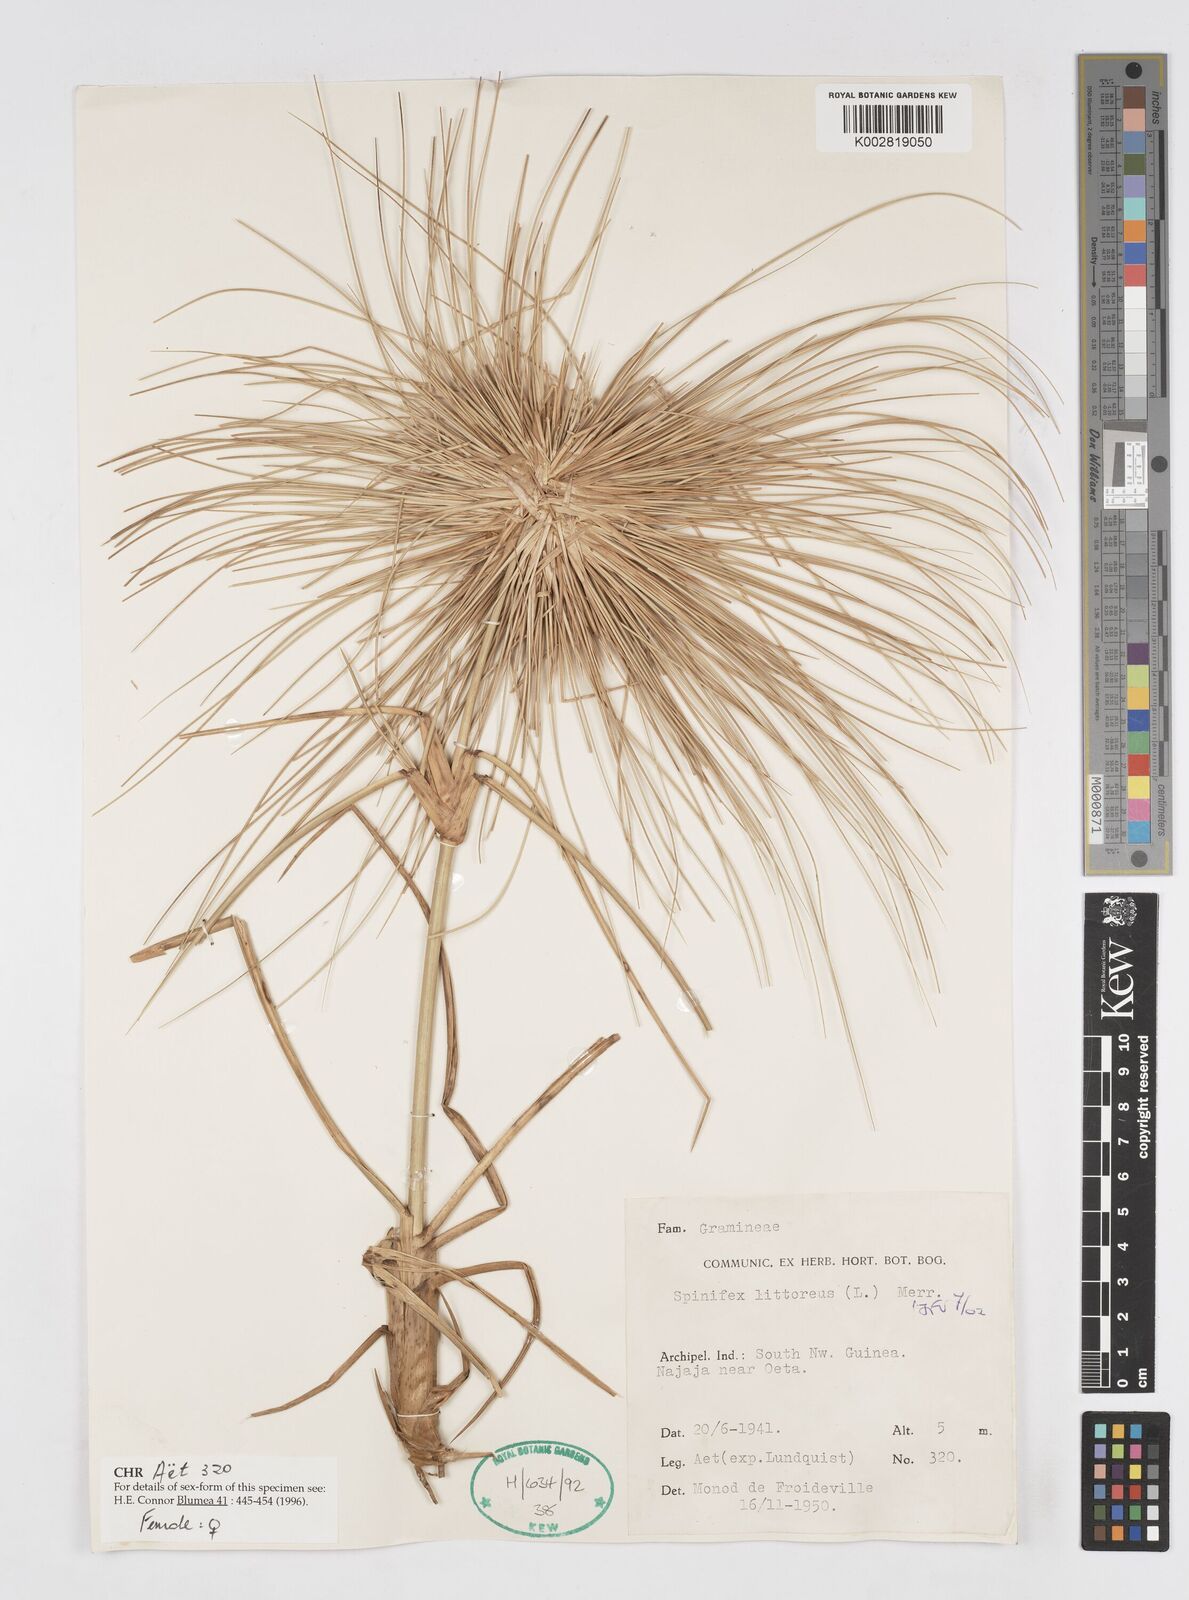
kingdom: Plantae
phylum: Tracheophyta
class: Liliopsida
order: Poales
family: Poaceae
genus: Spinifex
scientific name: Spinifex littoreus
